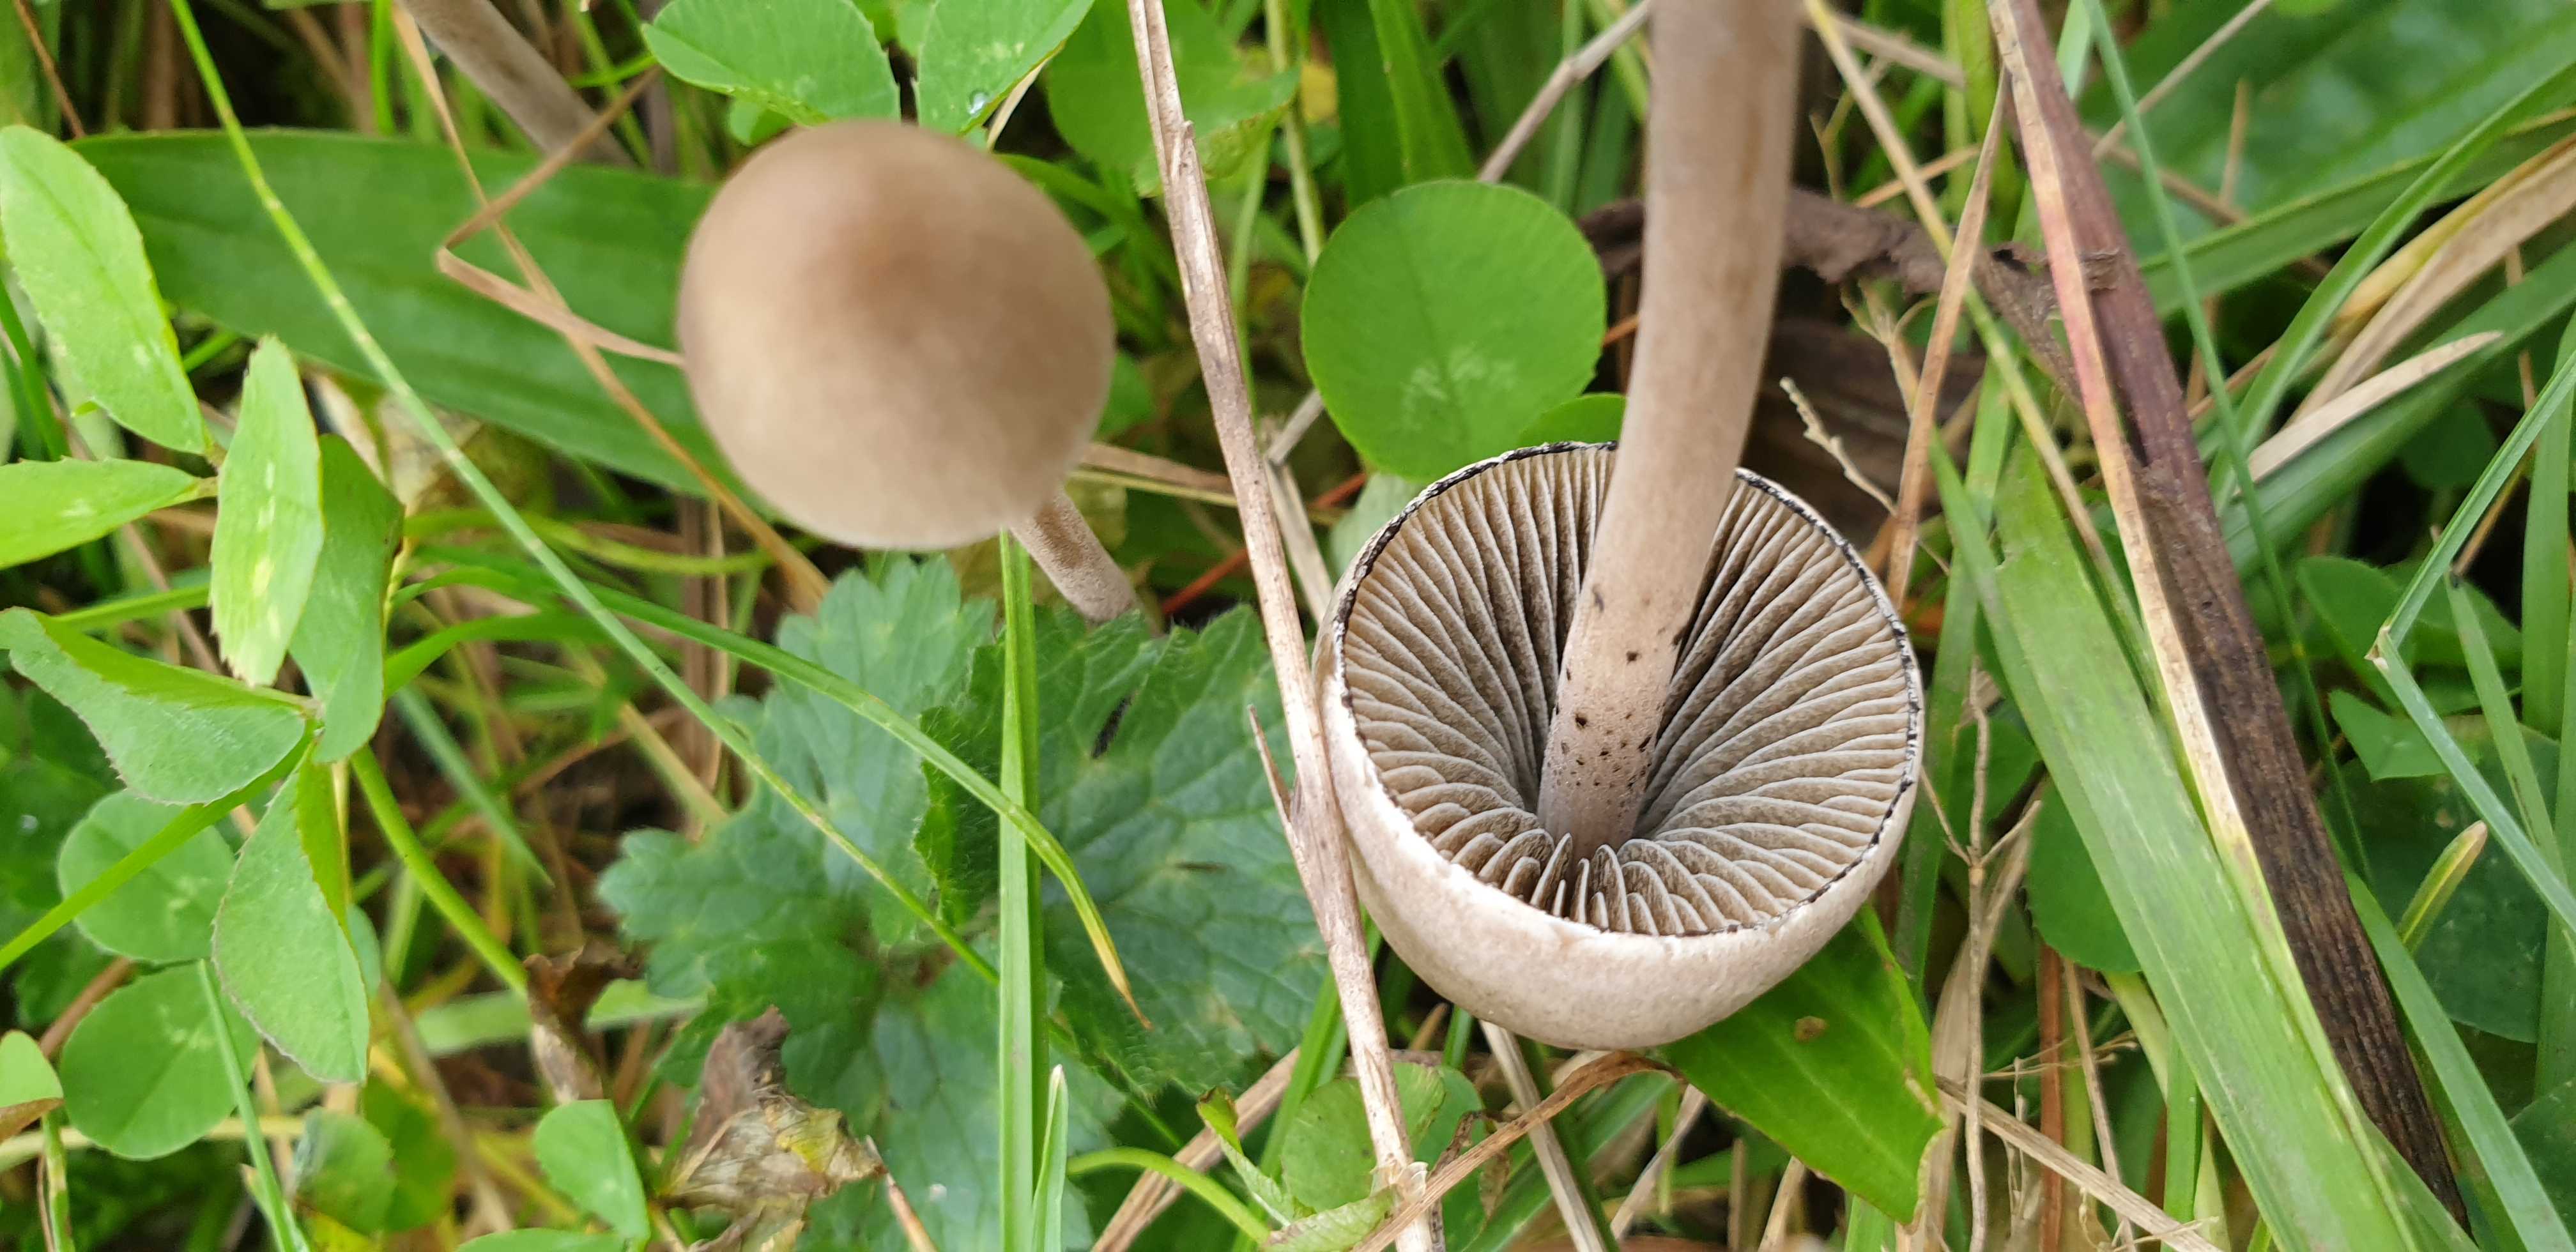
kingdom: Fungi
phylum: Basidiomycota
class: Agaricomycetes
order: Agaricales
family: Bolbitiaceae
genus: Panaeolus
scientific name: Panaeolus papilionaceus
